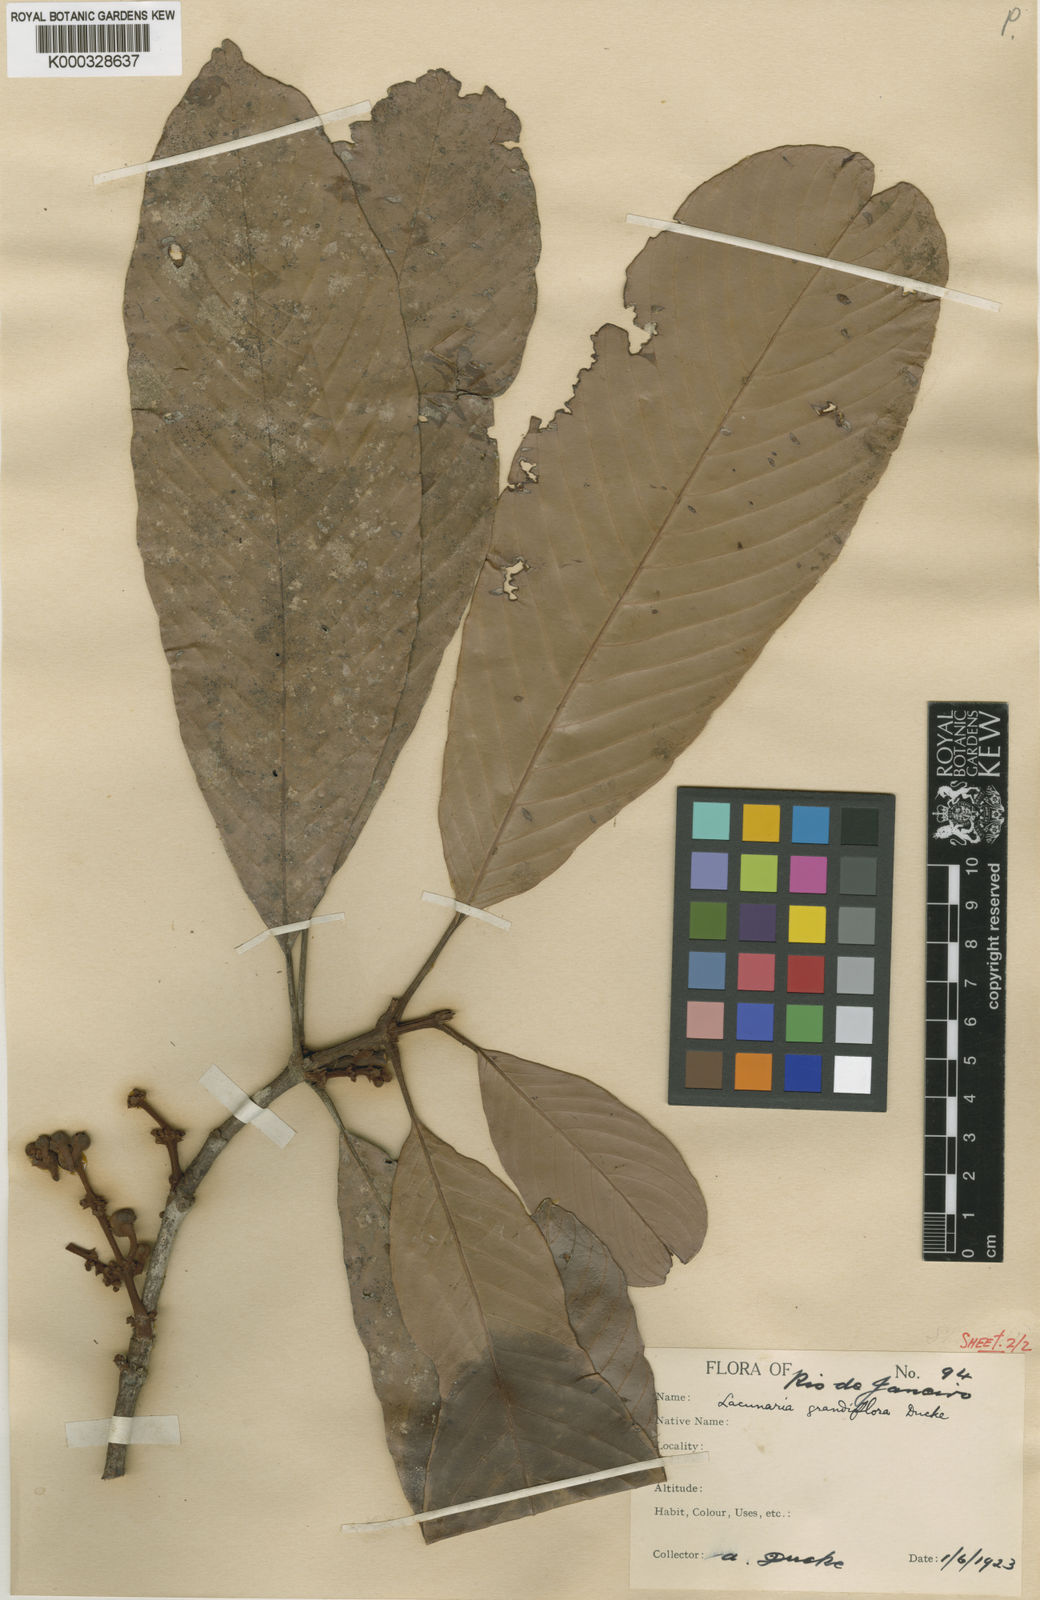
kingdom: Plantae
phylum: Tracheophyta
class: Magnoliopsida
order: Malpighiales
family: Quiinaceae
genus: Lacunaria
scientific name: Lacunaria jenmanii
